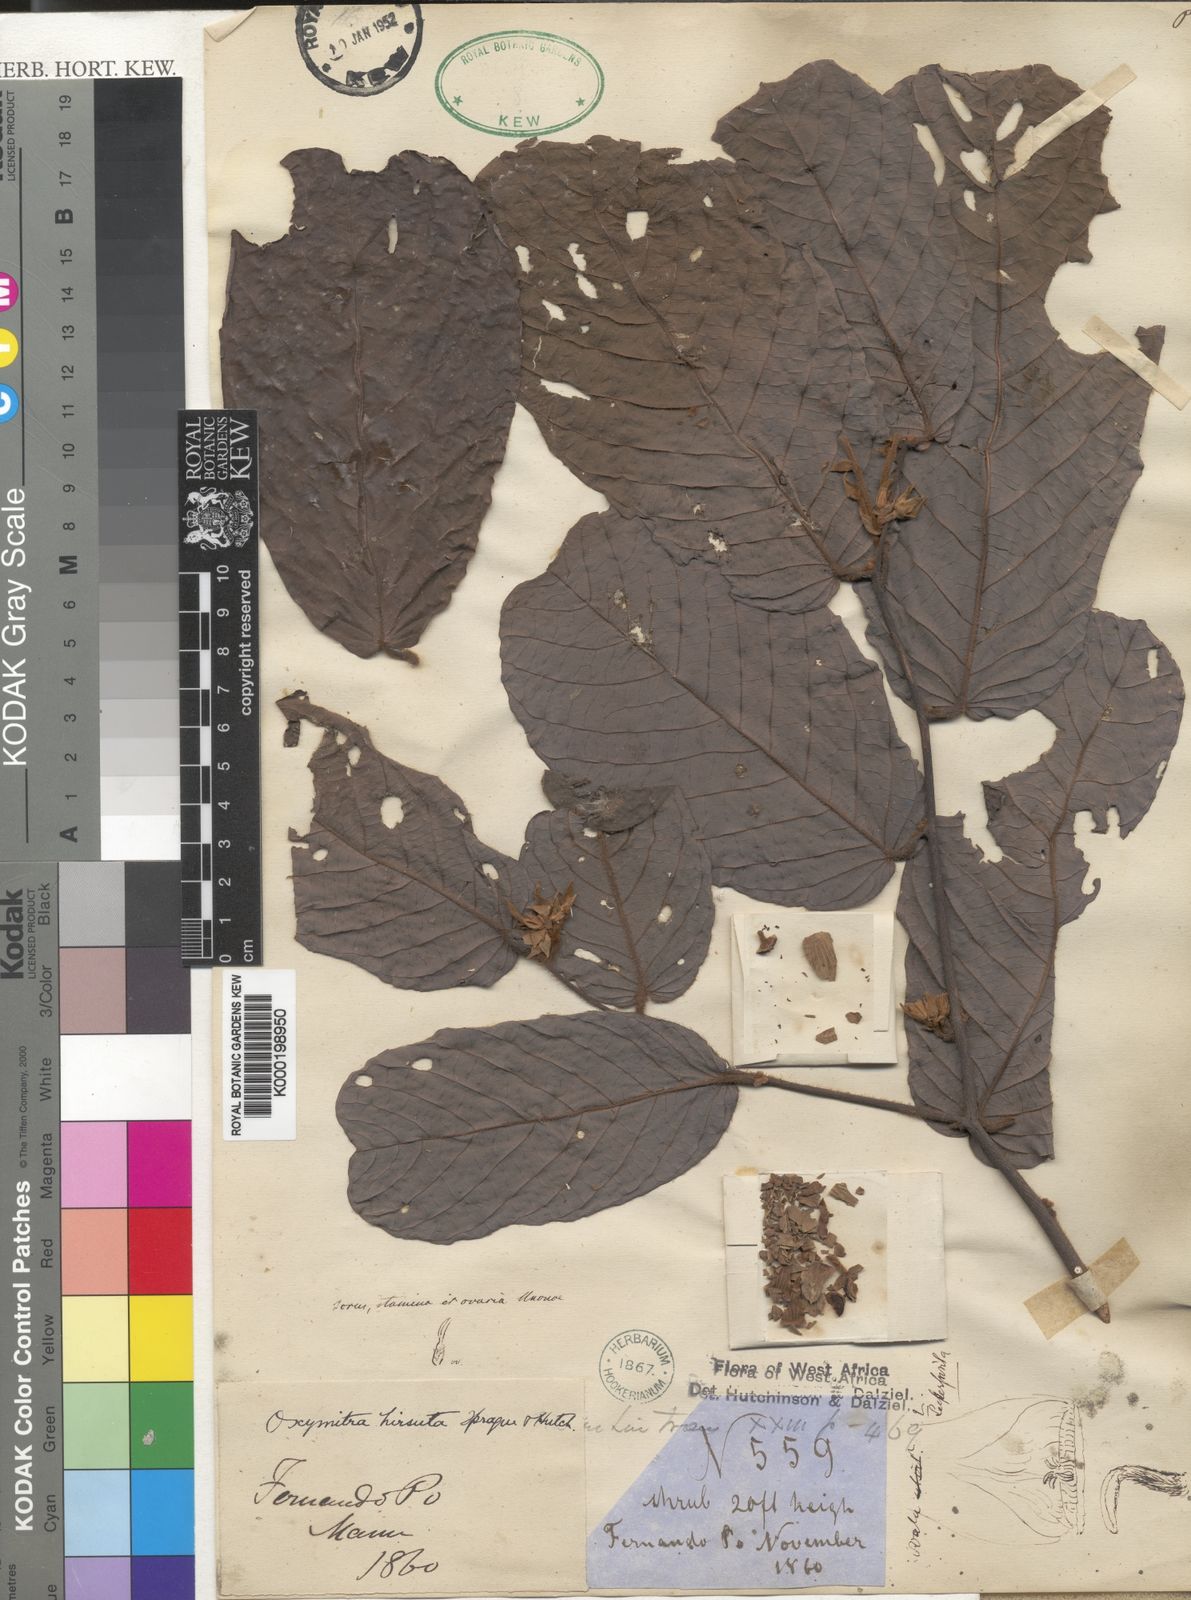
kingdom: Plantae
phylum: Tracheophyta
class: Magnoliopsida
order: Magnoliales
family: Annonaceae
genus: Friesodielsia
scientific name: Friesodielsia hirsuta
